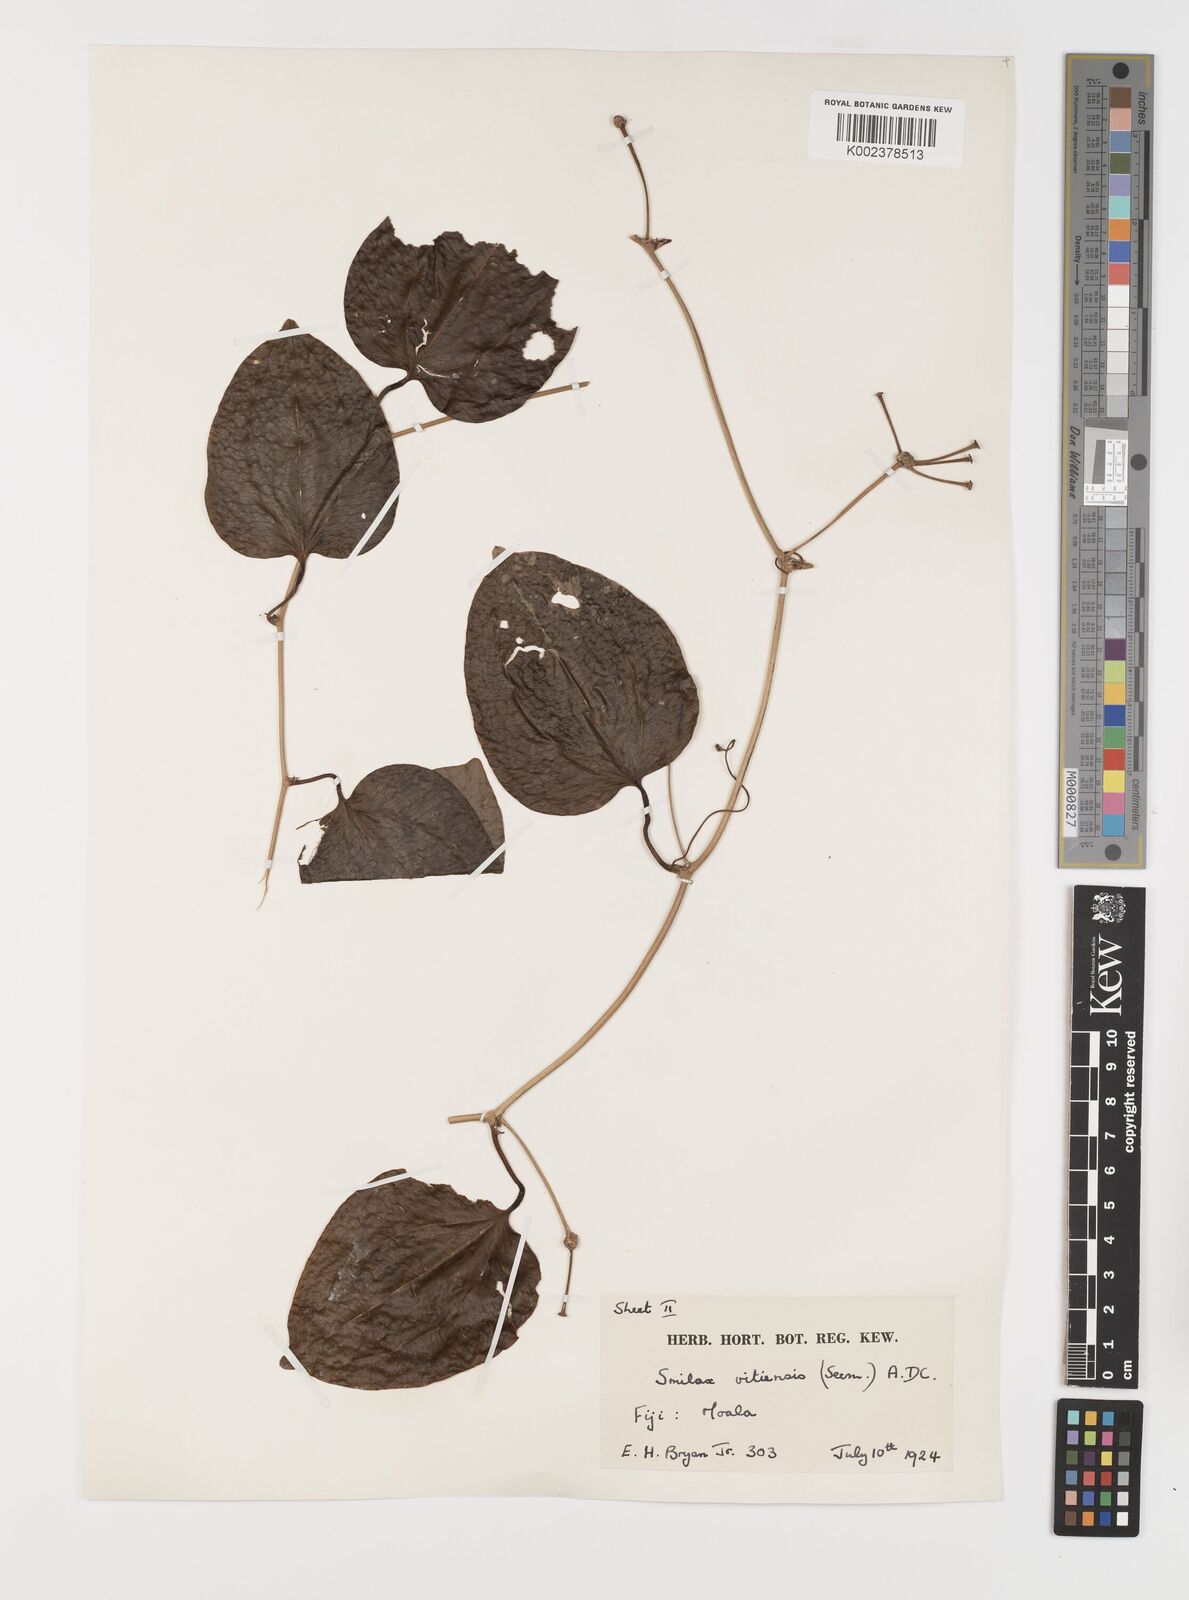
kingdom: Plantae
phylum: Tracheophyta
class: Liliopsida
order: Liliales
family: Smilacaceae
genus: Smilax
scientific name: Smilax vitiensis
